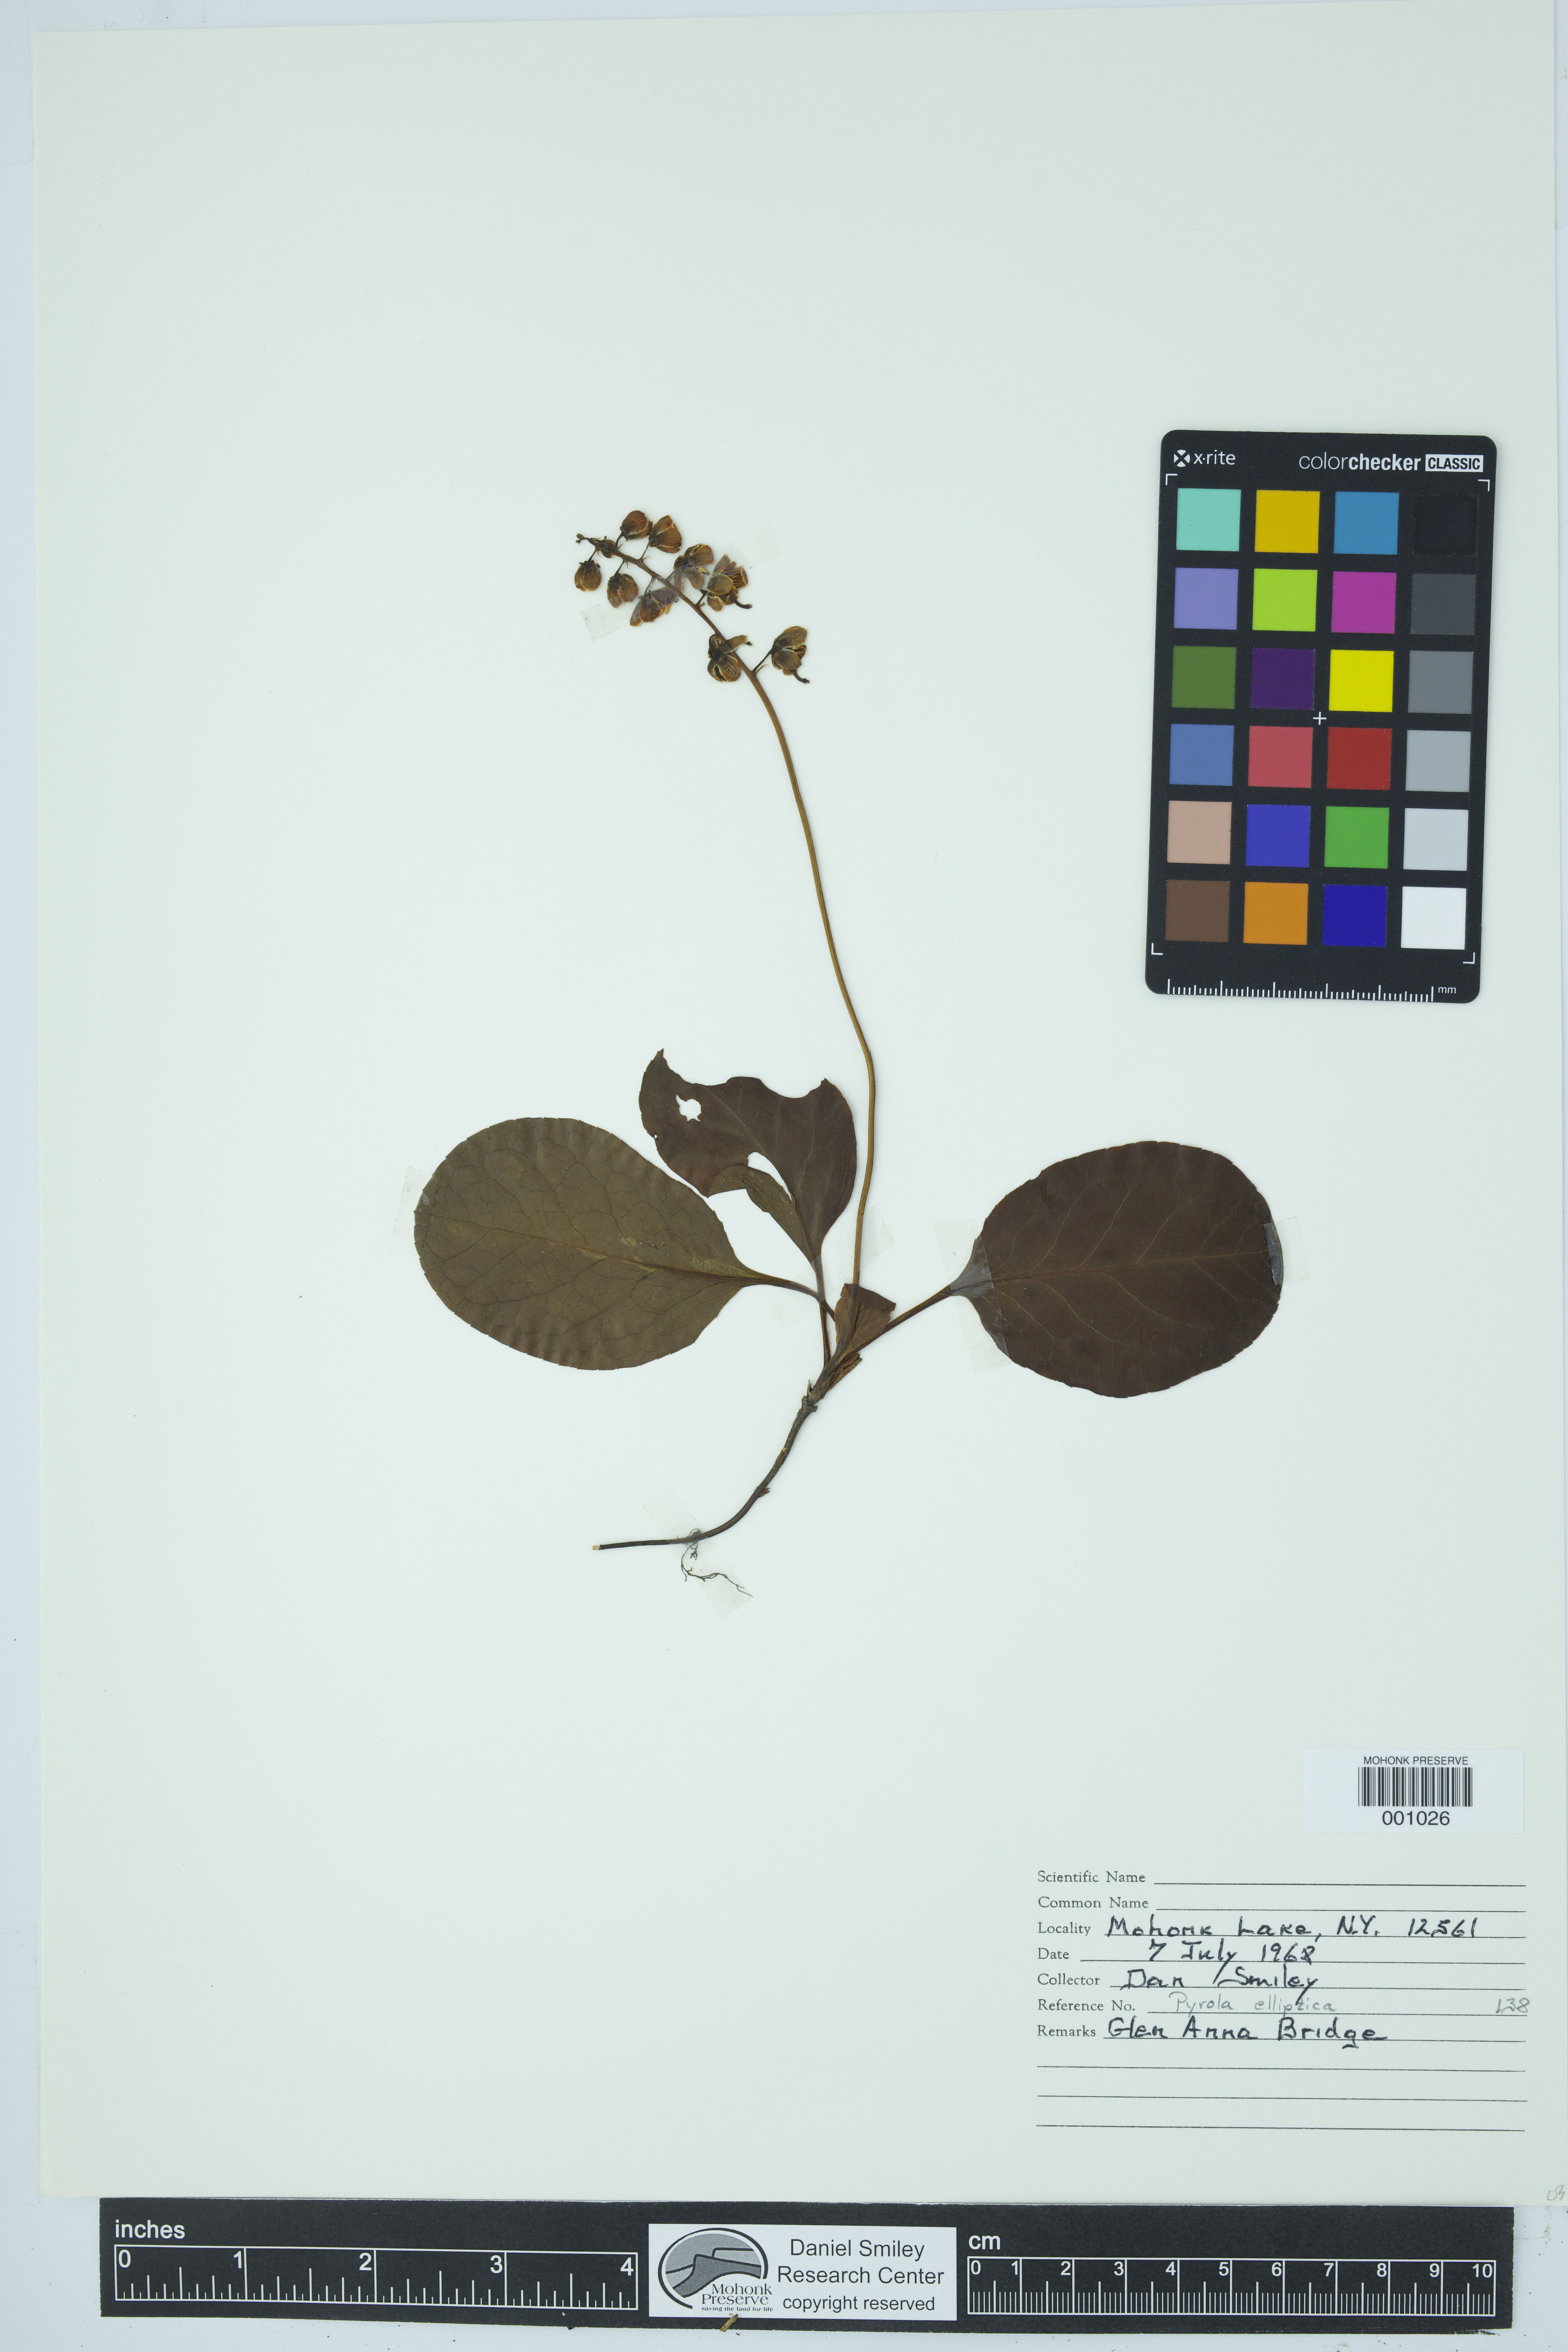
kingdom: Plantae
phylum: Tracheophyta
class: Magnoliopsida
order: Ericales
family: Ericaceae
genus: Pyrola
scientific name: Pyrola elliptica
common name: Shinleaf
